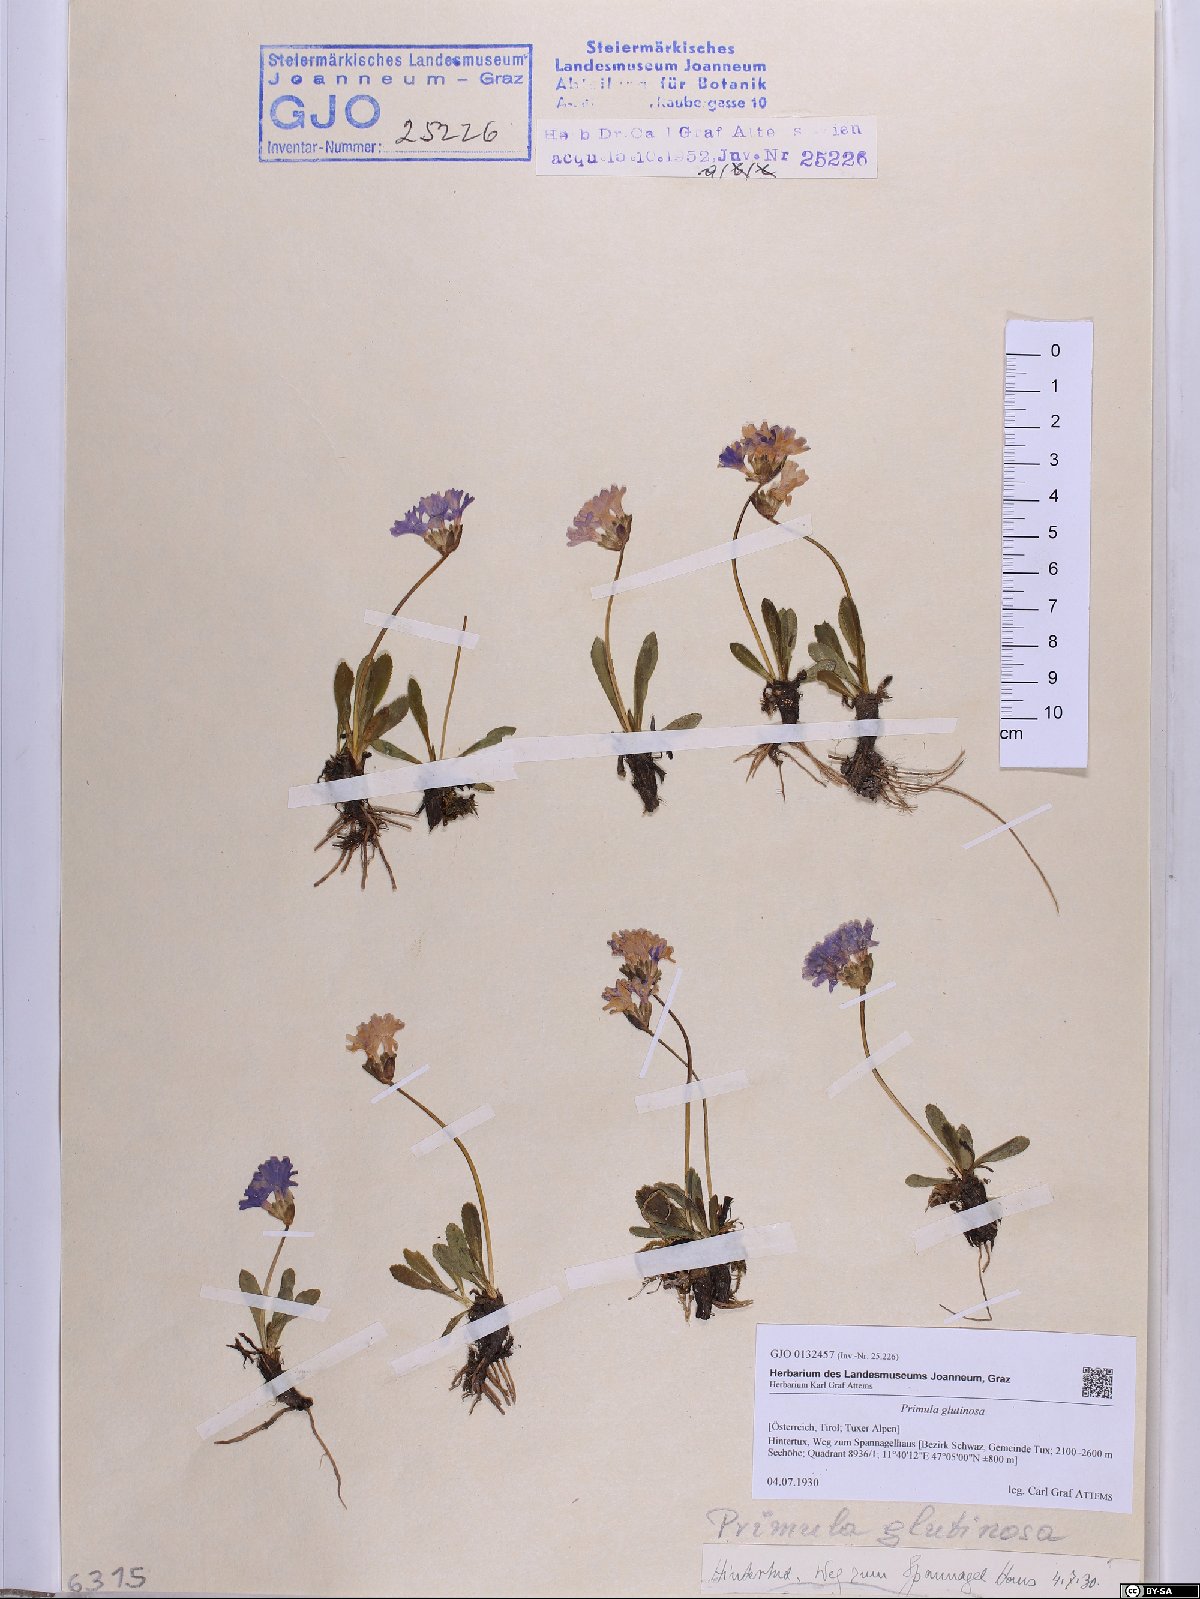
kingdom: Plantae
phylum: Tracheophyta
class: Magnoliopsida
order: Ericales
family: Primulaceae
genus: Primula
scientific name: Primula glutinosa
